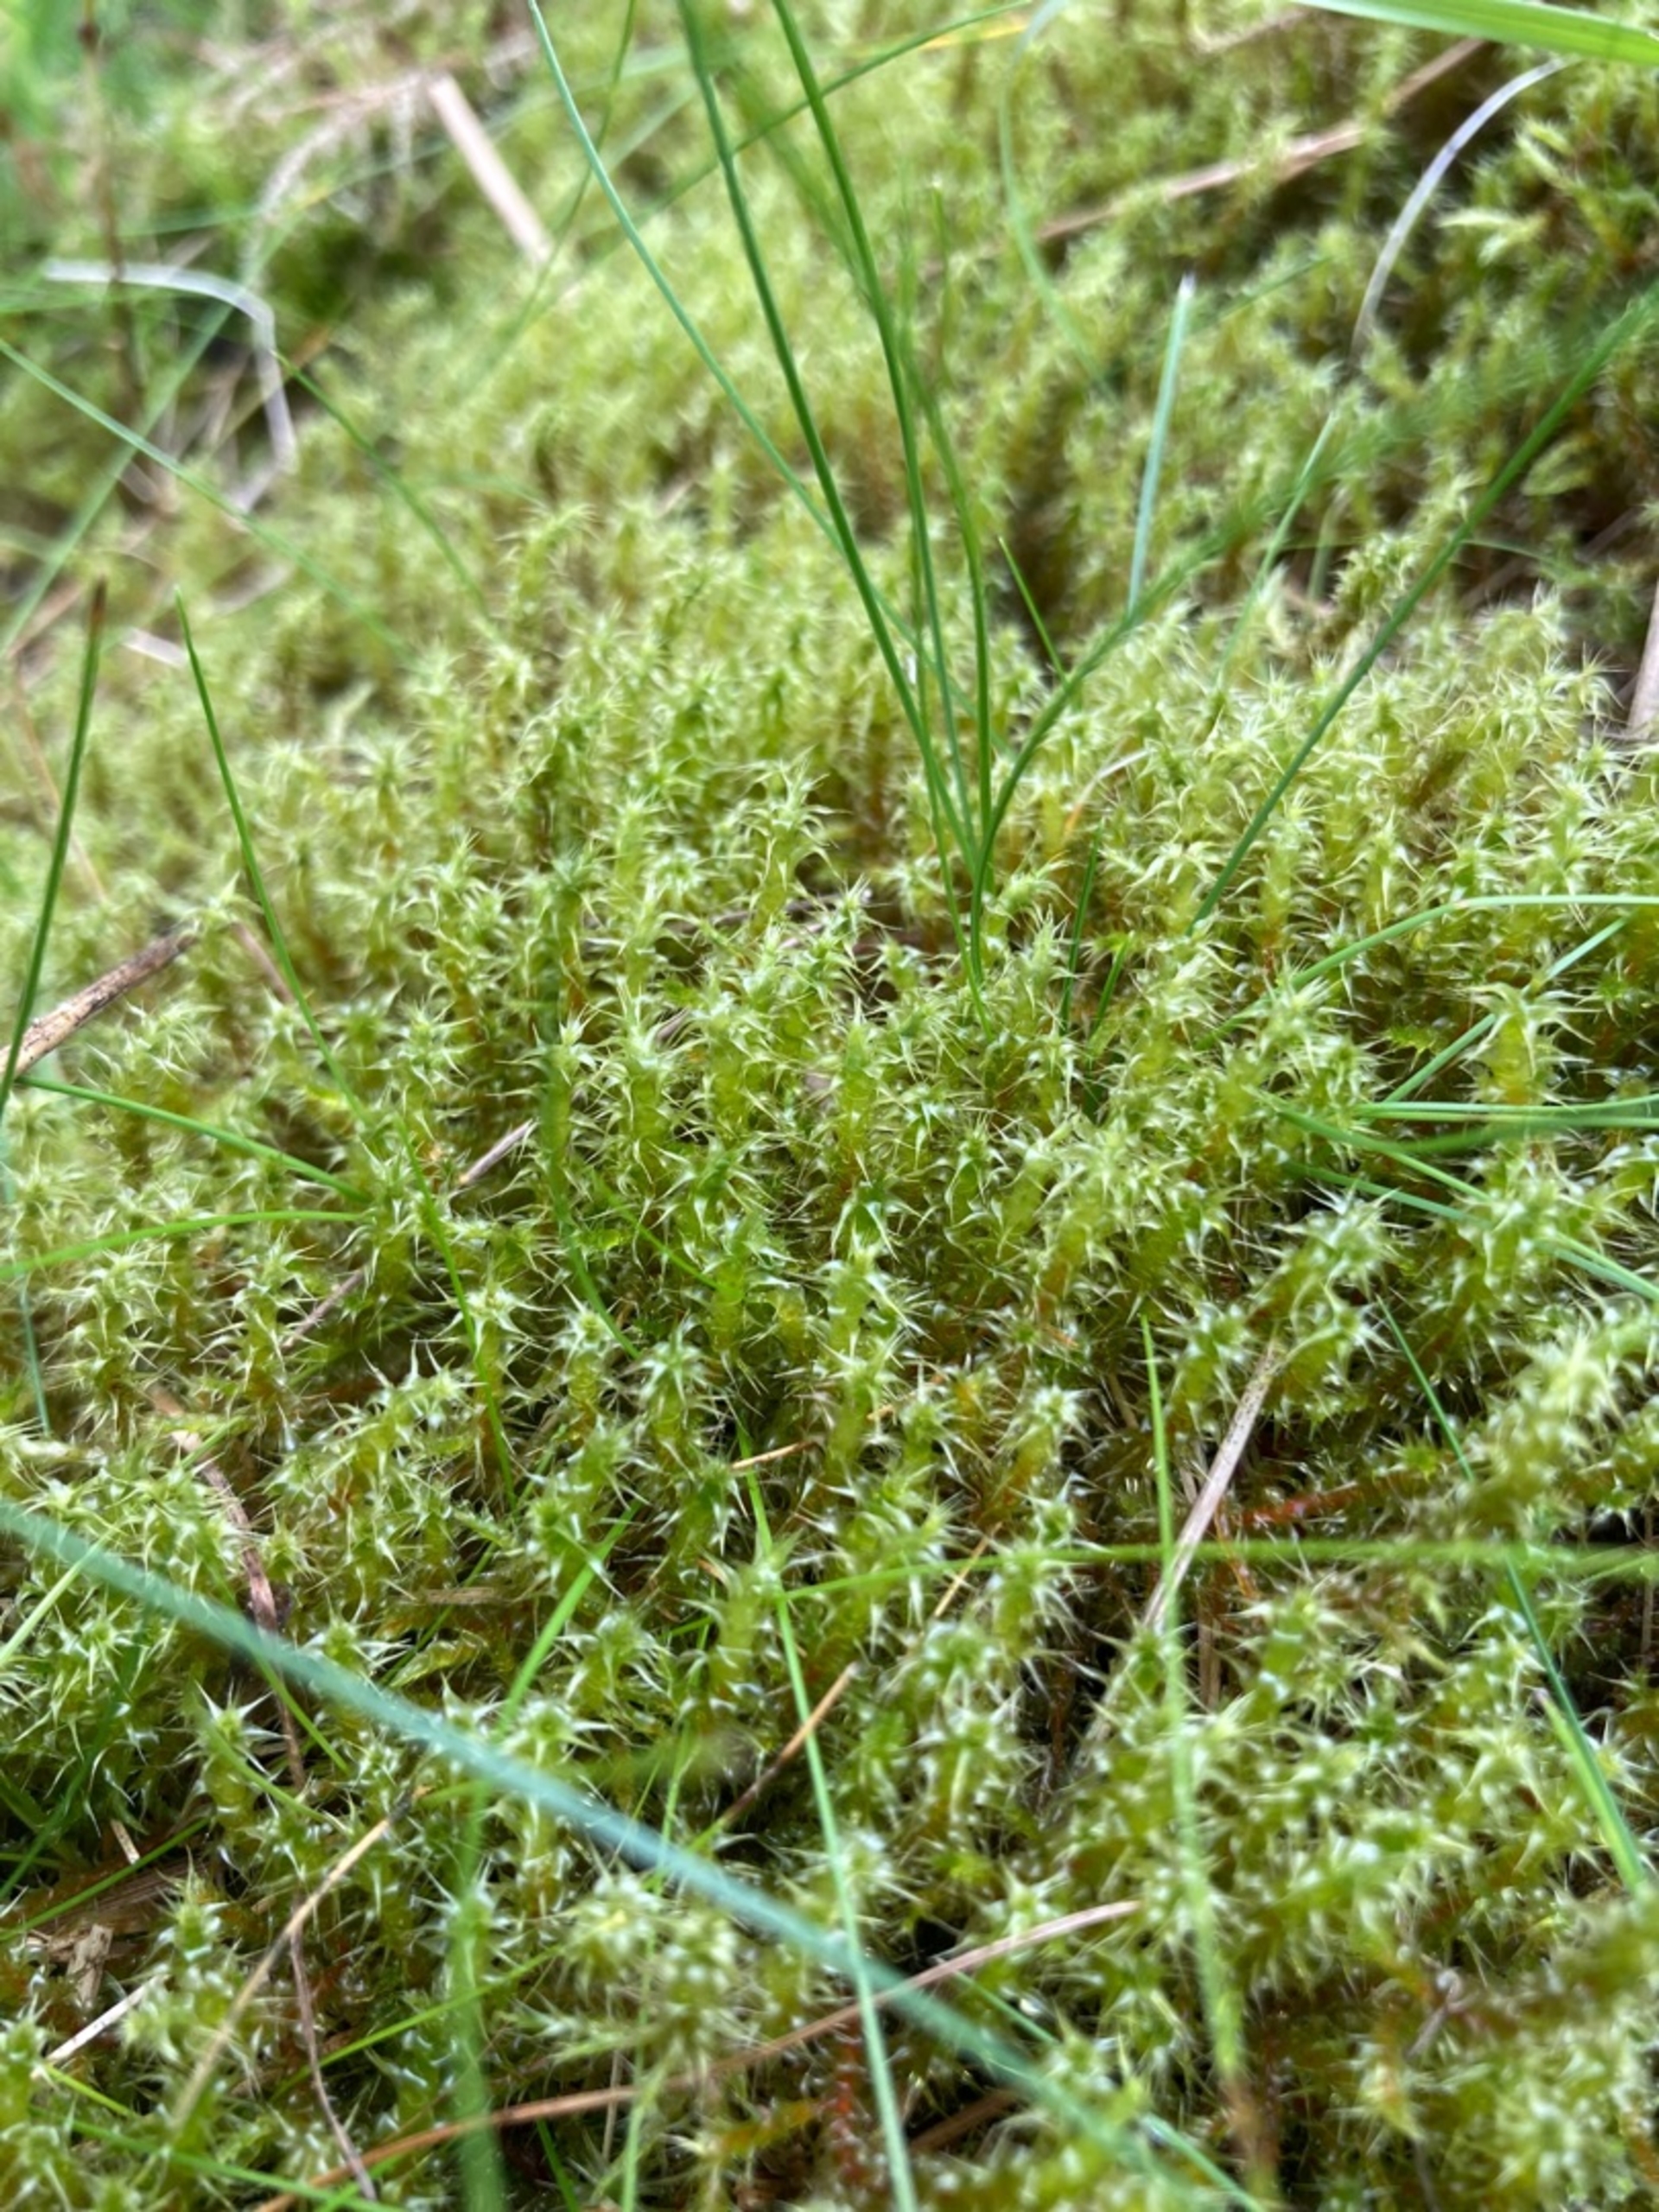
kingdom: Plantae
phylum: Bryophyta
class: Bryopsida
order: Hypnales
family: Hylocomiaceae
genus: Rhytidiadelphus
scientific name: Rhytidiadelphus squarrosus
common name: Plæne-kransemos
